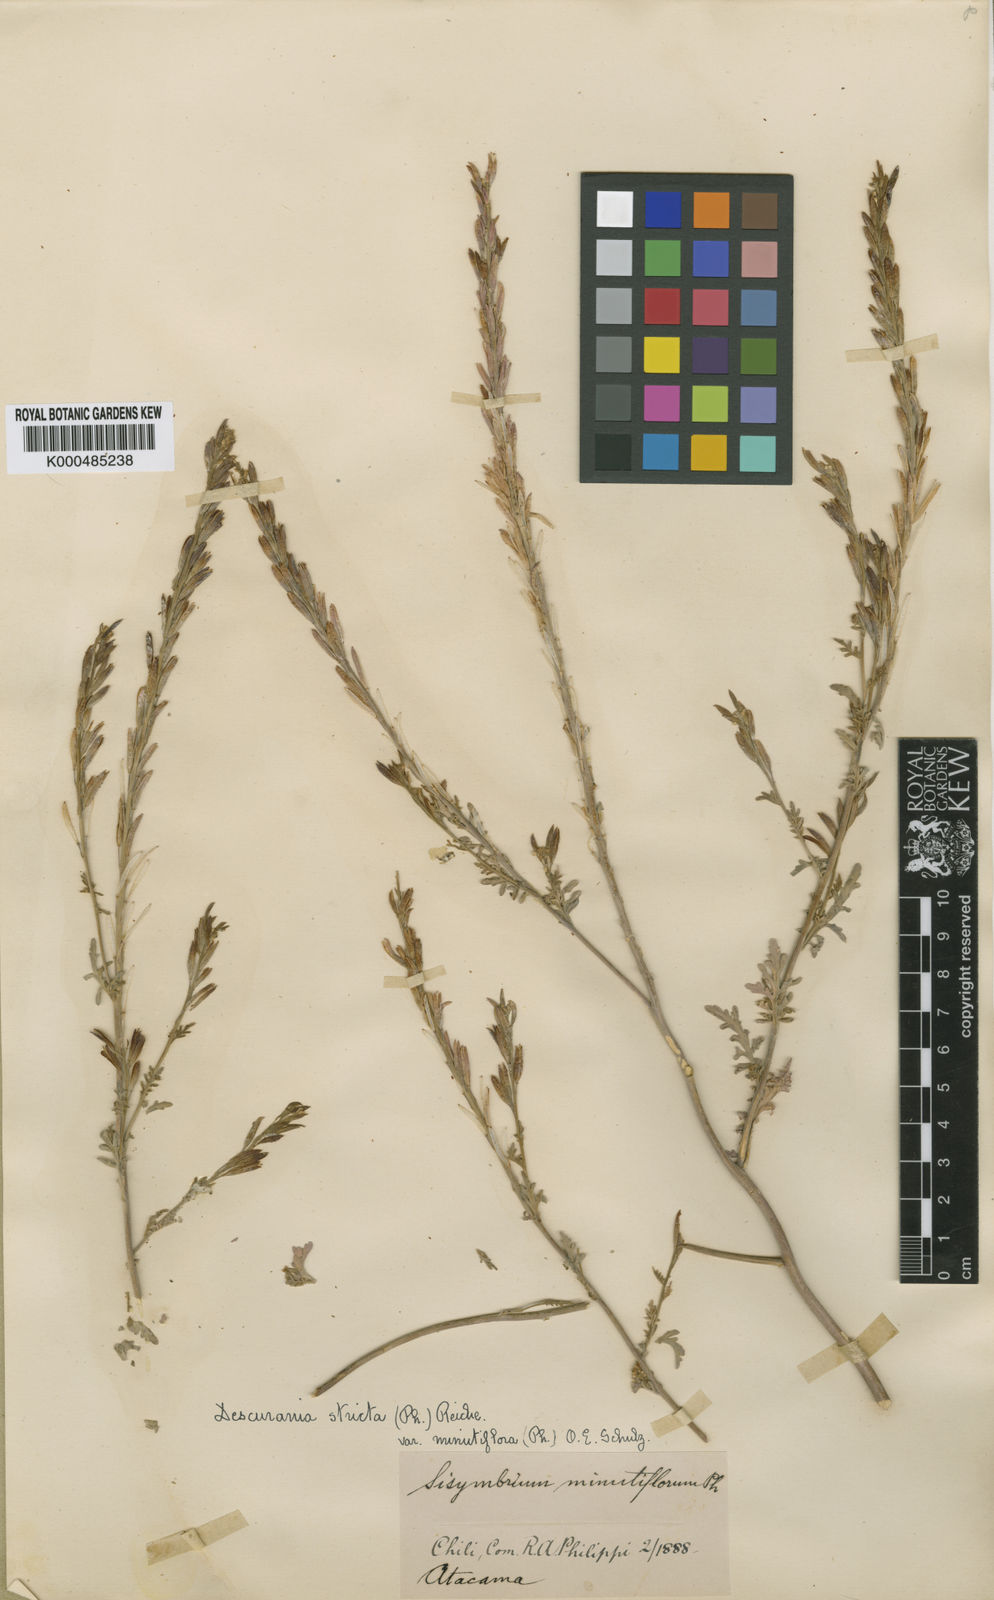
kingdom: Plantae
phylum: Tracheophyta
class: Magnoliopsida
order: Brassicales
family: Brassicaceae
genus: Descurainia
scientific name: Descurainia stricta
